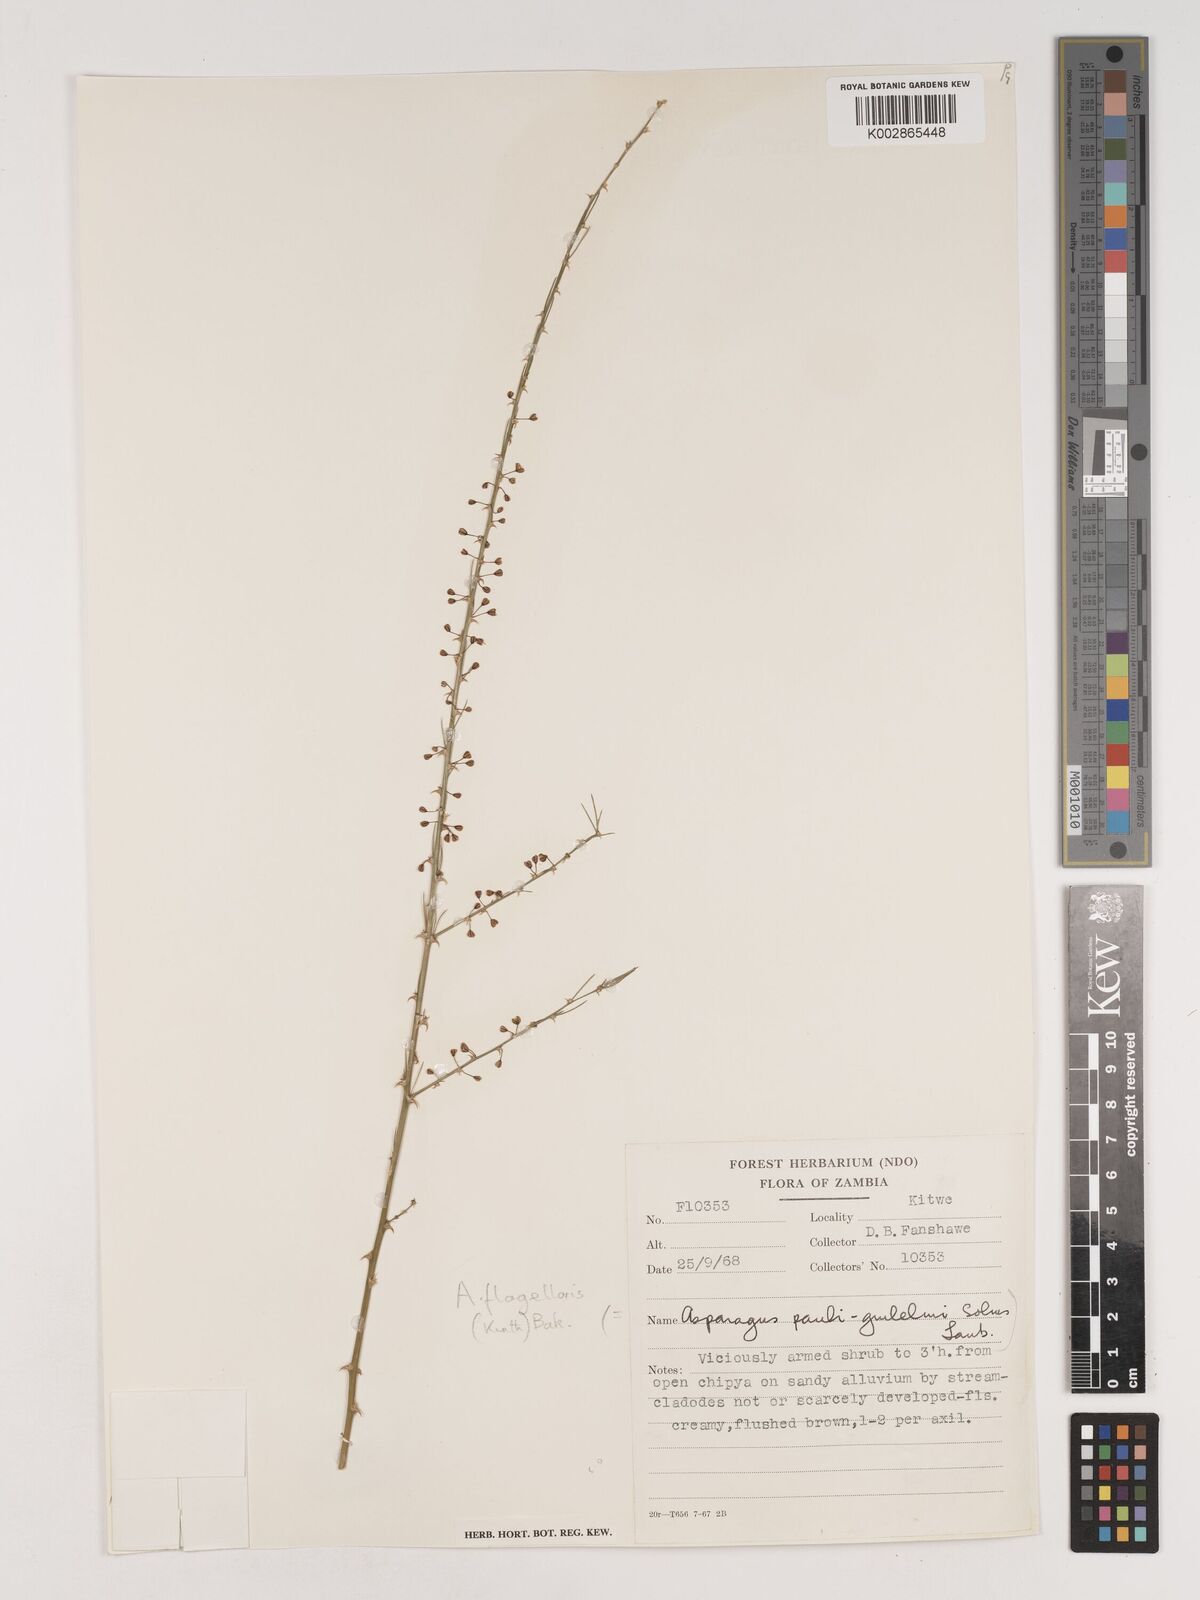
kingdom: Plantae
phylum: Tracheophyta
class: Liliopsida
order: Asparagales
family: Asparagaceae
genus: Asparagus
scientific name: Asparagus flagellaris
